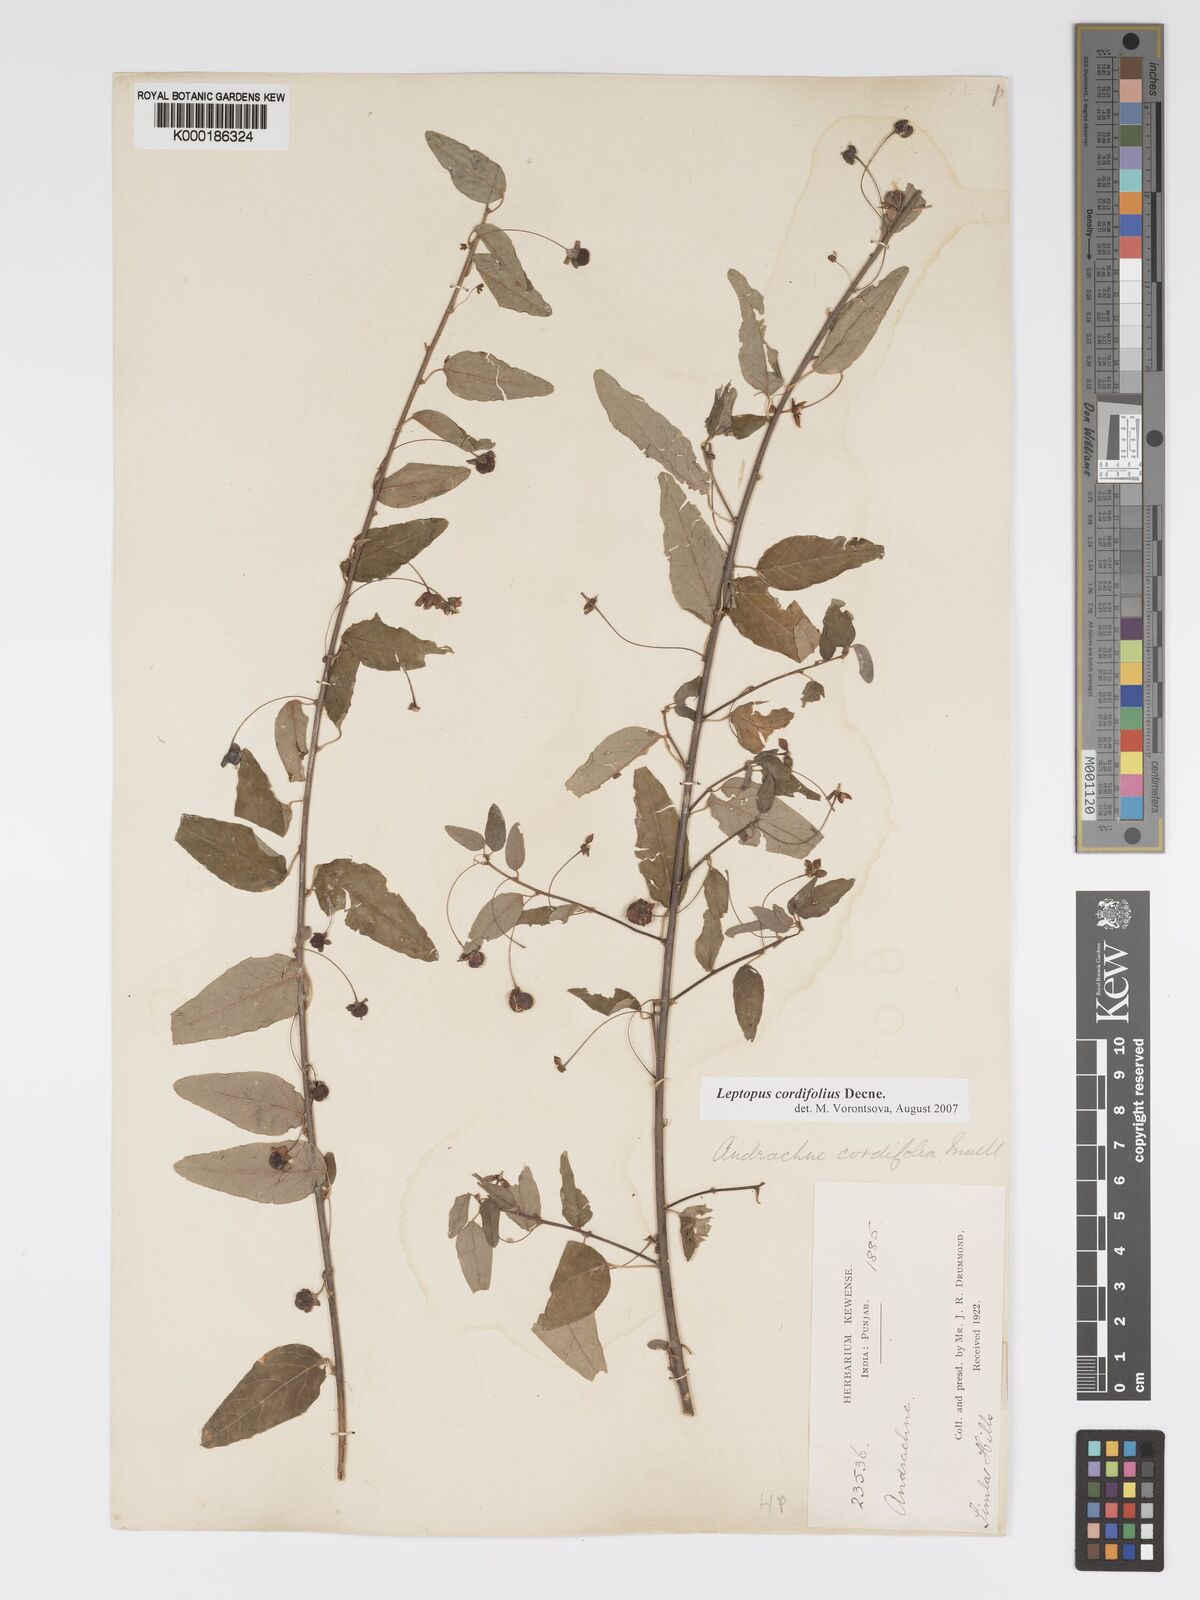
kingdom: Plantae
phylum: Tracheophyta
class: Magnoliopsida
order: Malpighiales
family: Phyllanthaceae
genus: Leptopus
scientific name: Leptopus cordifolius
